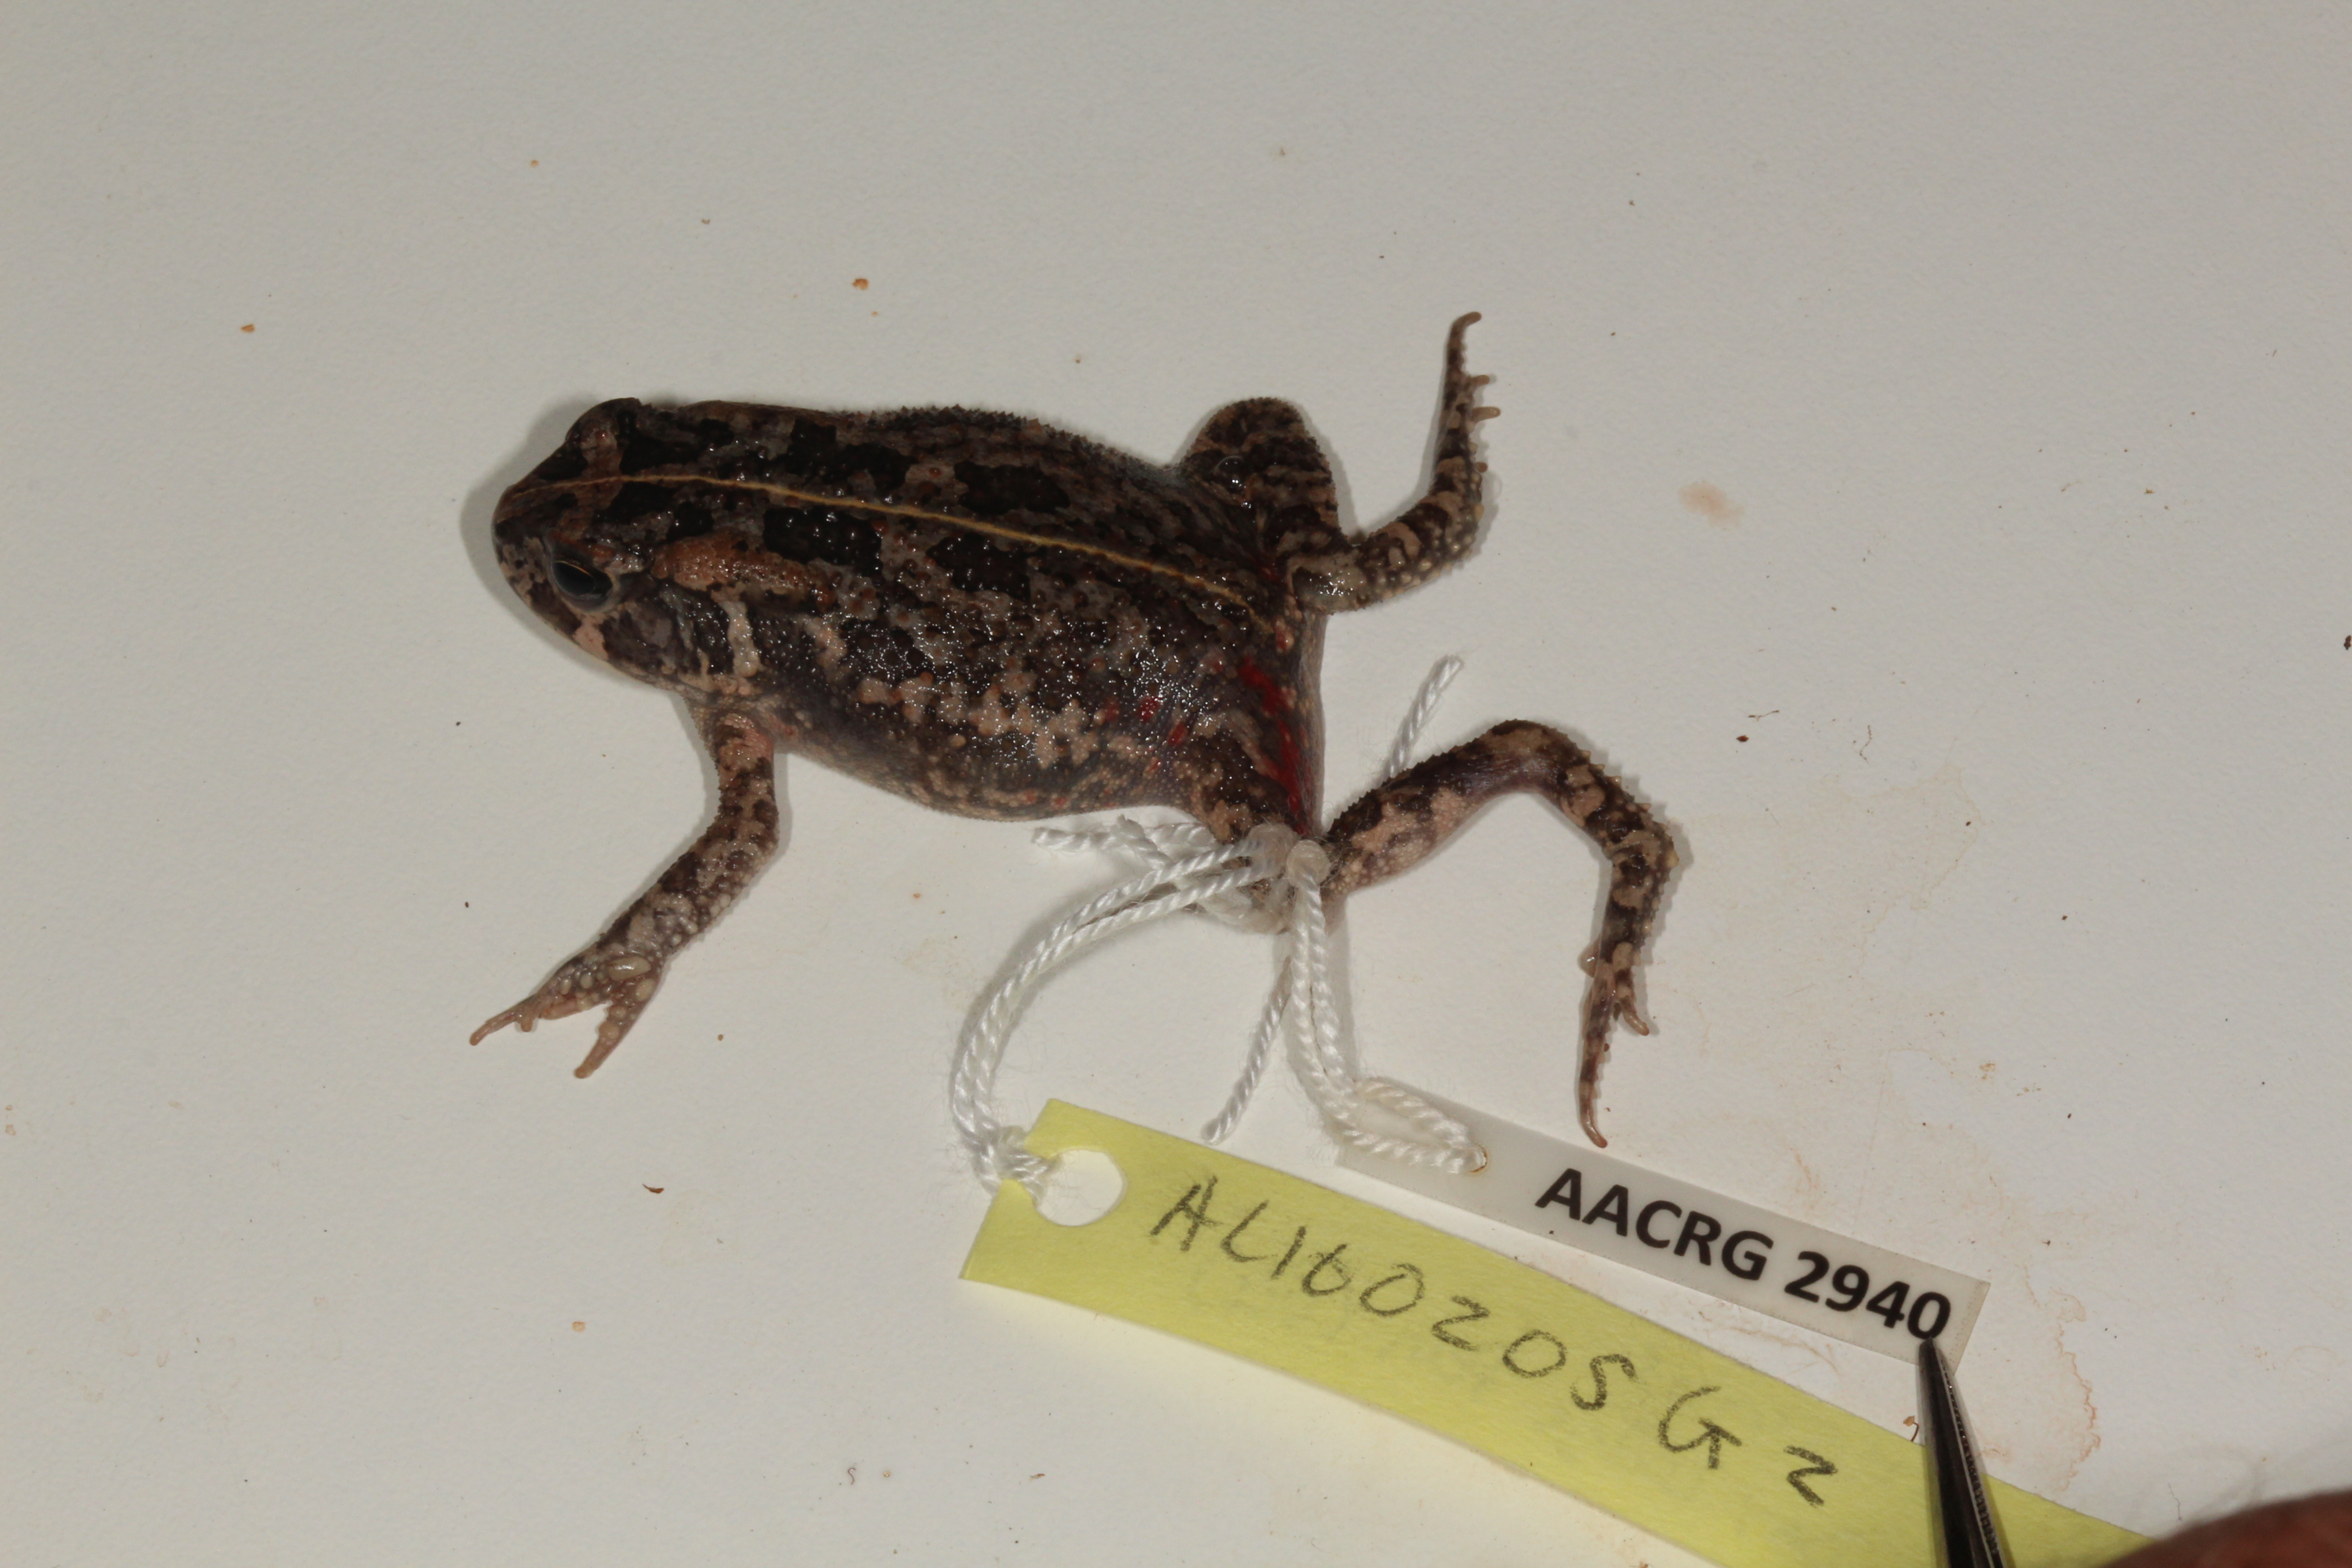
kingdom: Animalia
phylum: Chordata
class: Amphibia
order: Anura
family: Bufonidae
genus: Sclerophrys
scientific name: Sclerophrys gutturalis
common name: African common toad
